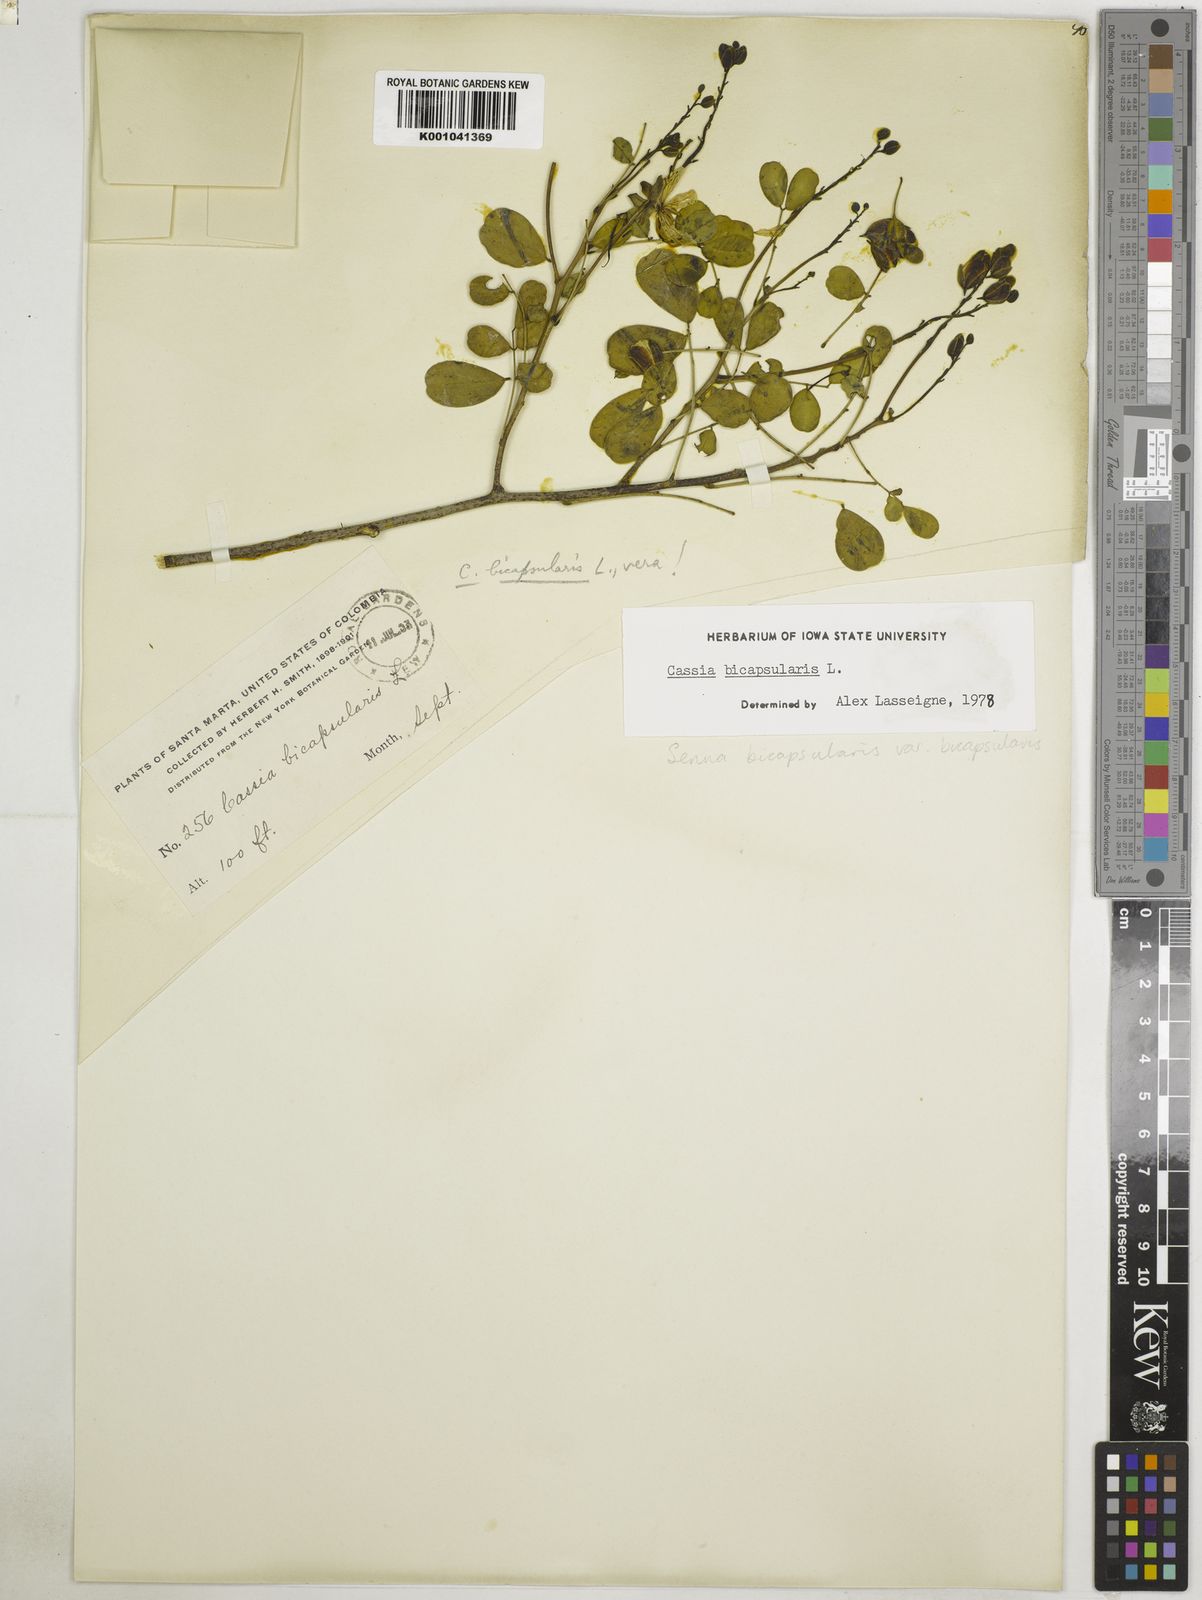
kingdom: Plantae
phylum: Tracheophyta
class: Magnoliopsida
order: Fabales
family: Fabaceae
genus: Senna
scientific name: Senna bicapsularis
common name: Christmasbush
